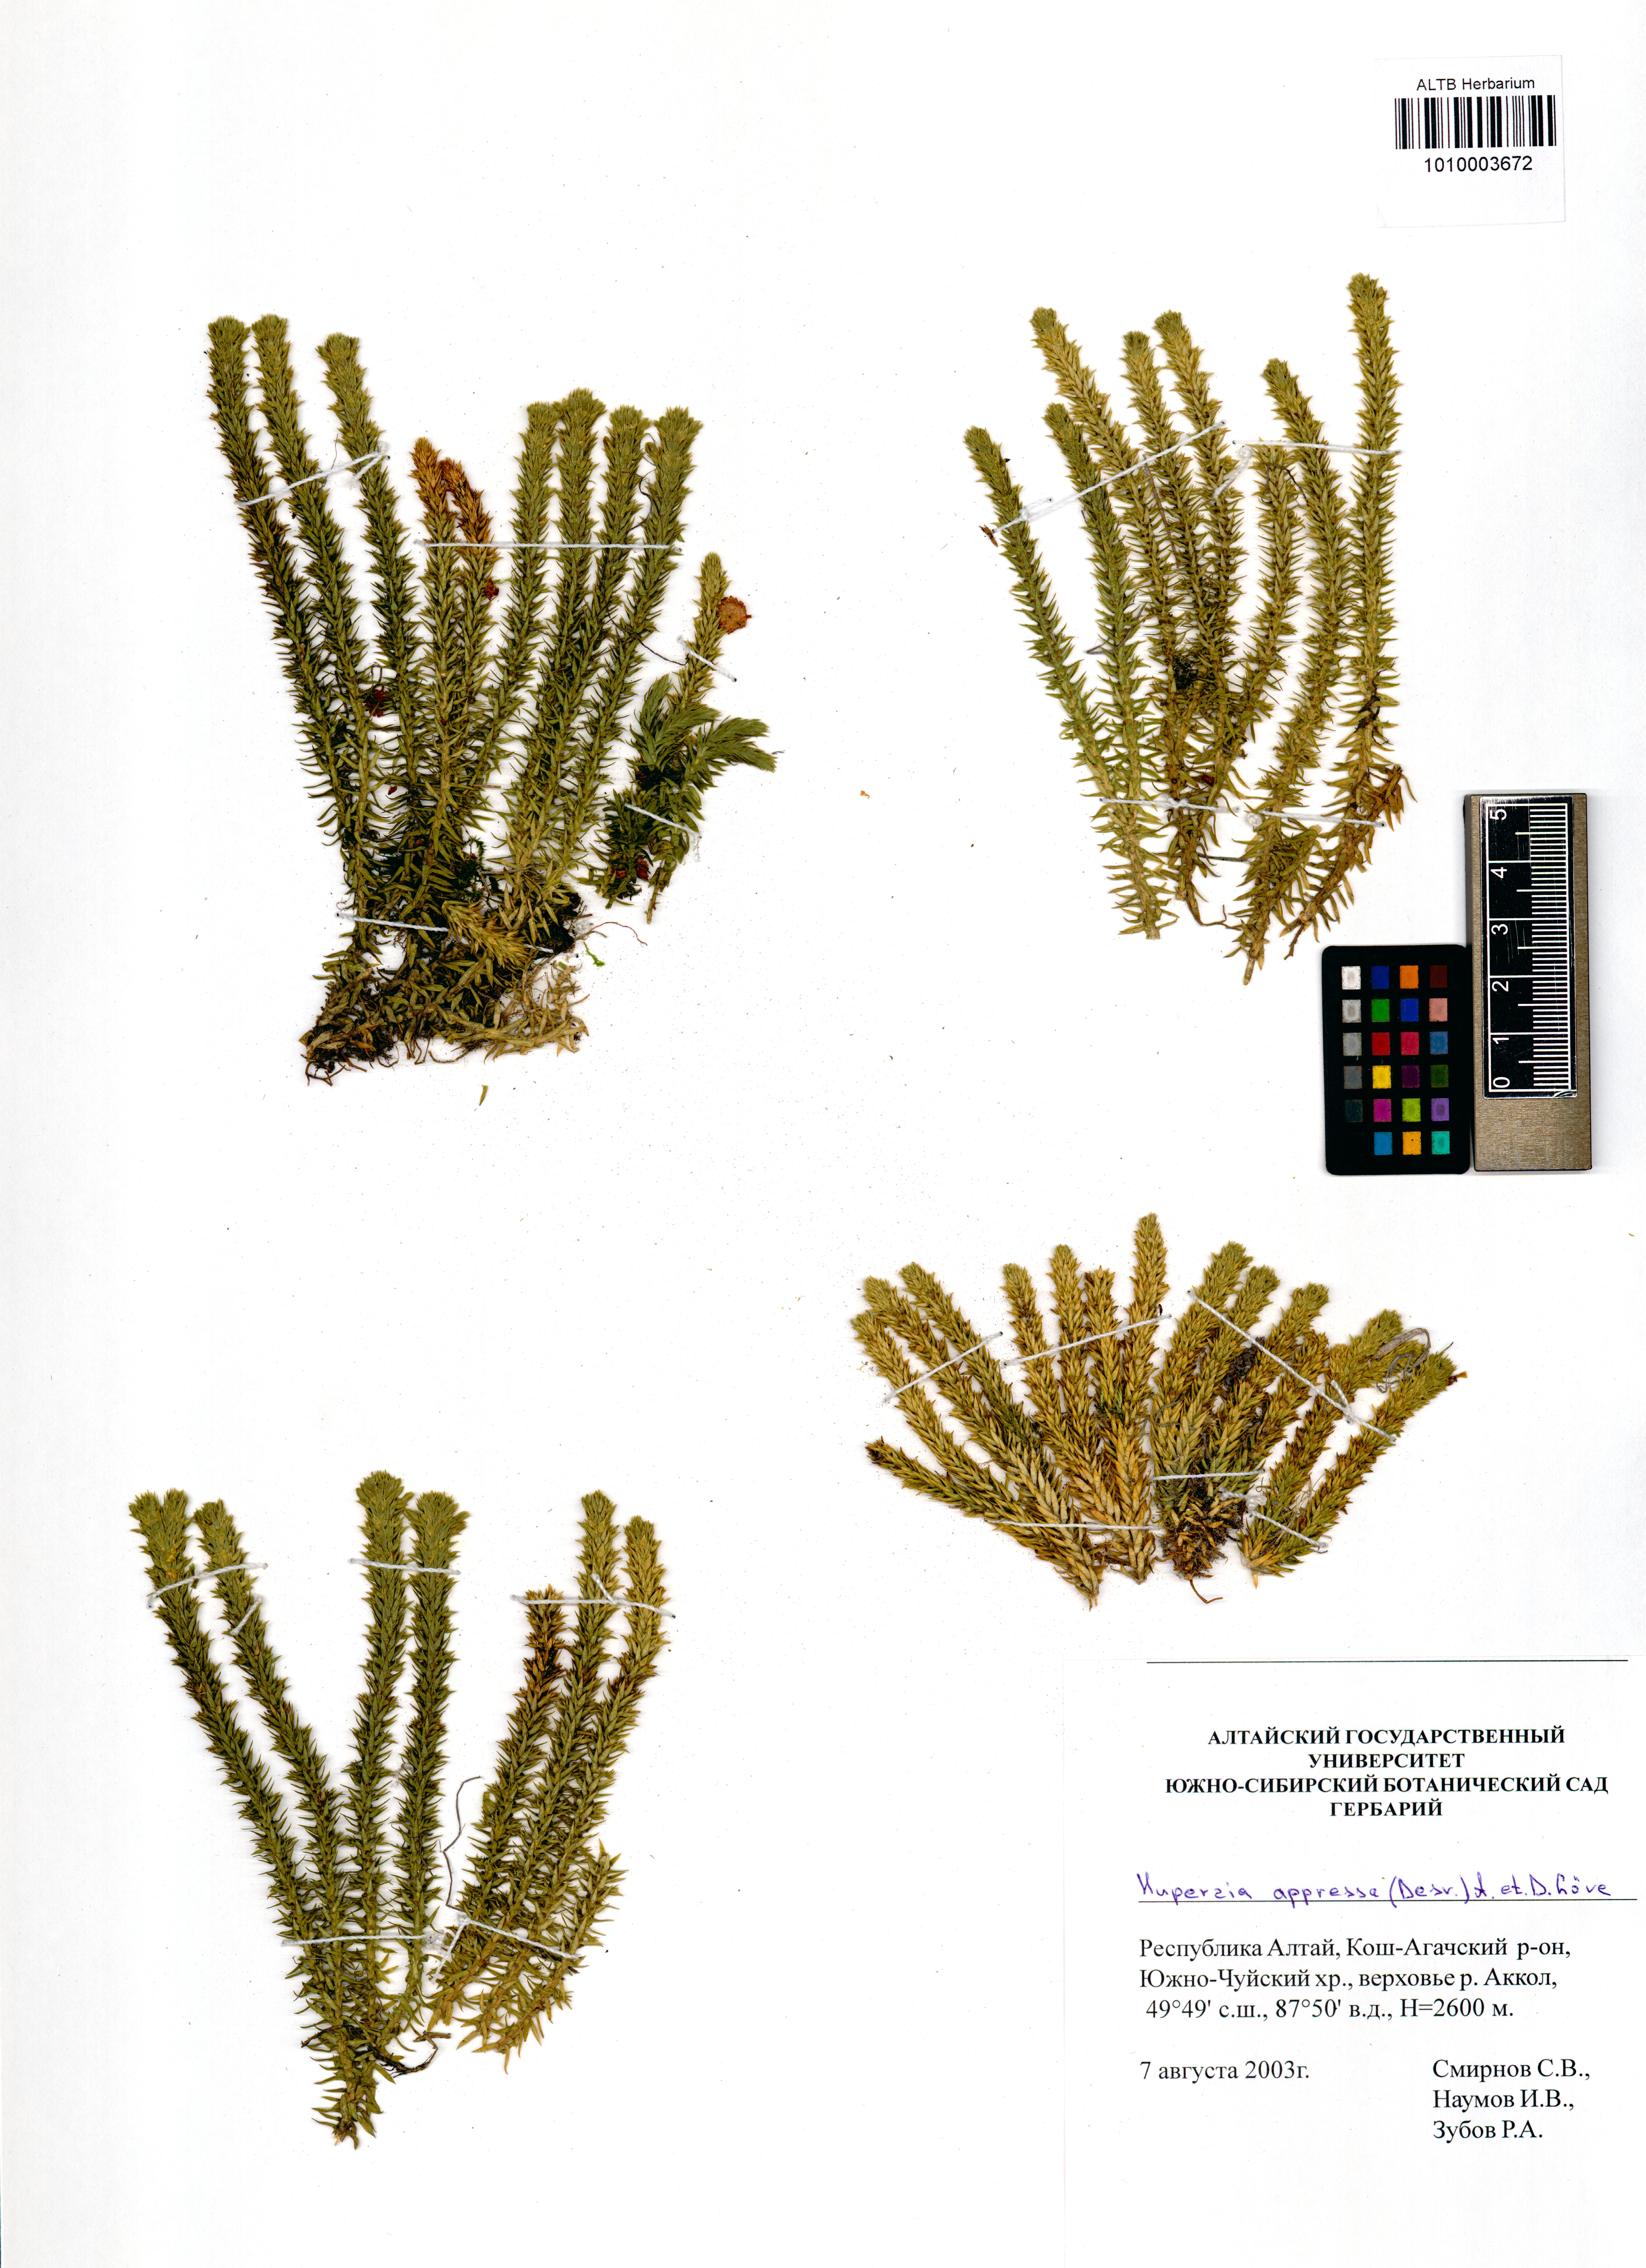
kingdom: Plantae
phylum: Tracheophyta
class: Lycopodiopsida
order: Lycopodiales
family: Lycopodiaceae
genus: Huperzia
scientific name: Huperzia selago
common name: Northern firmoss
